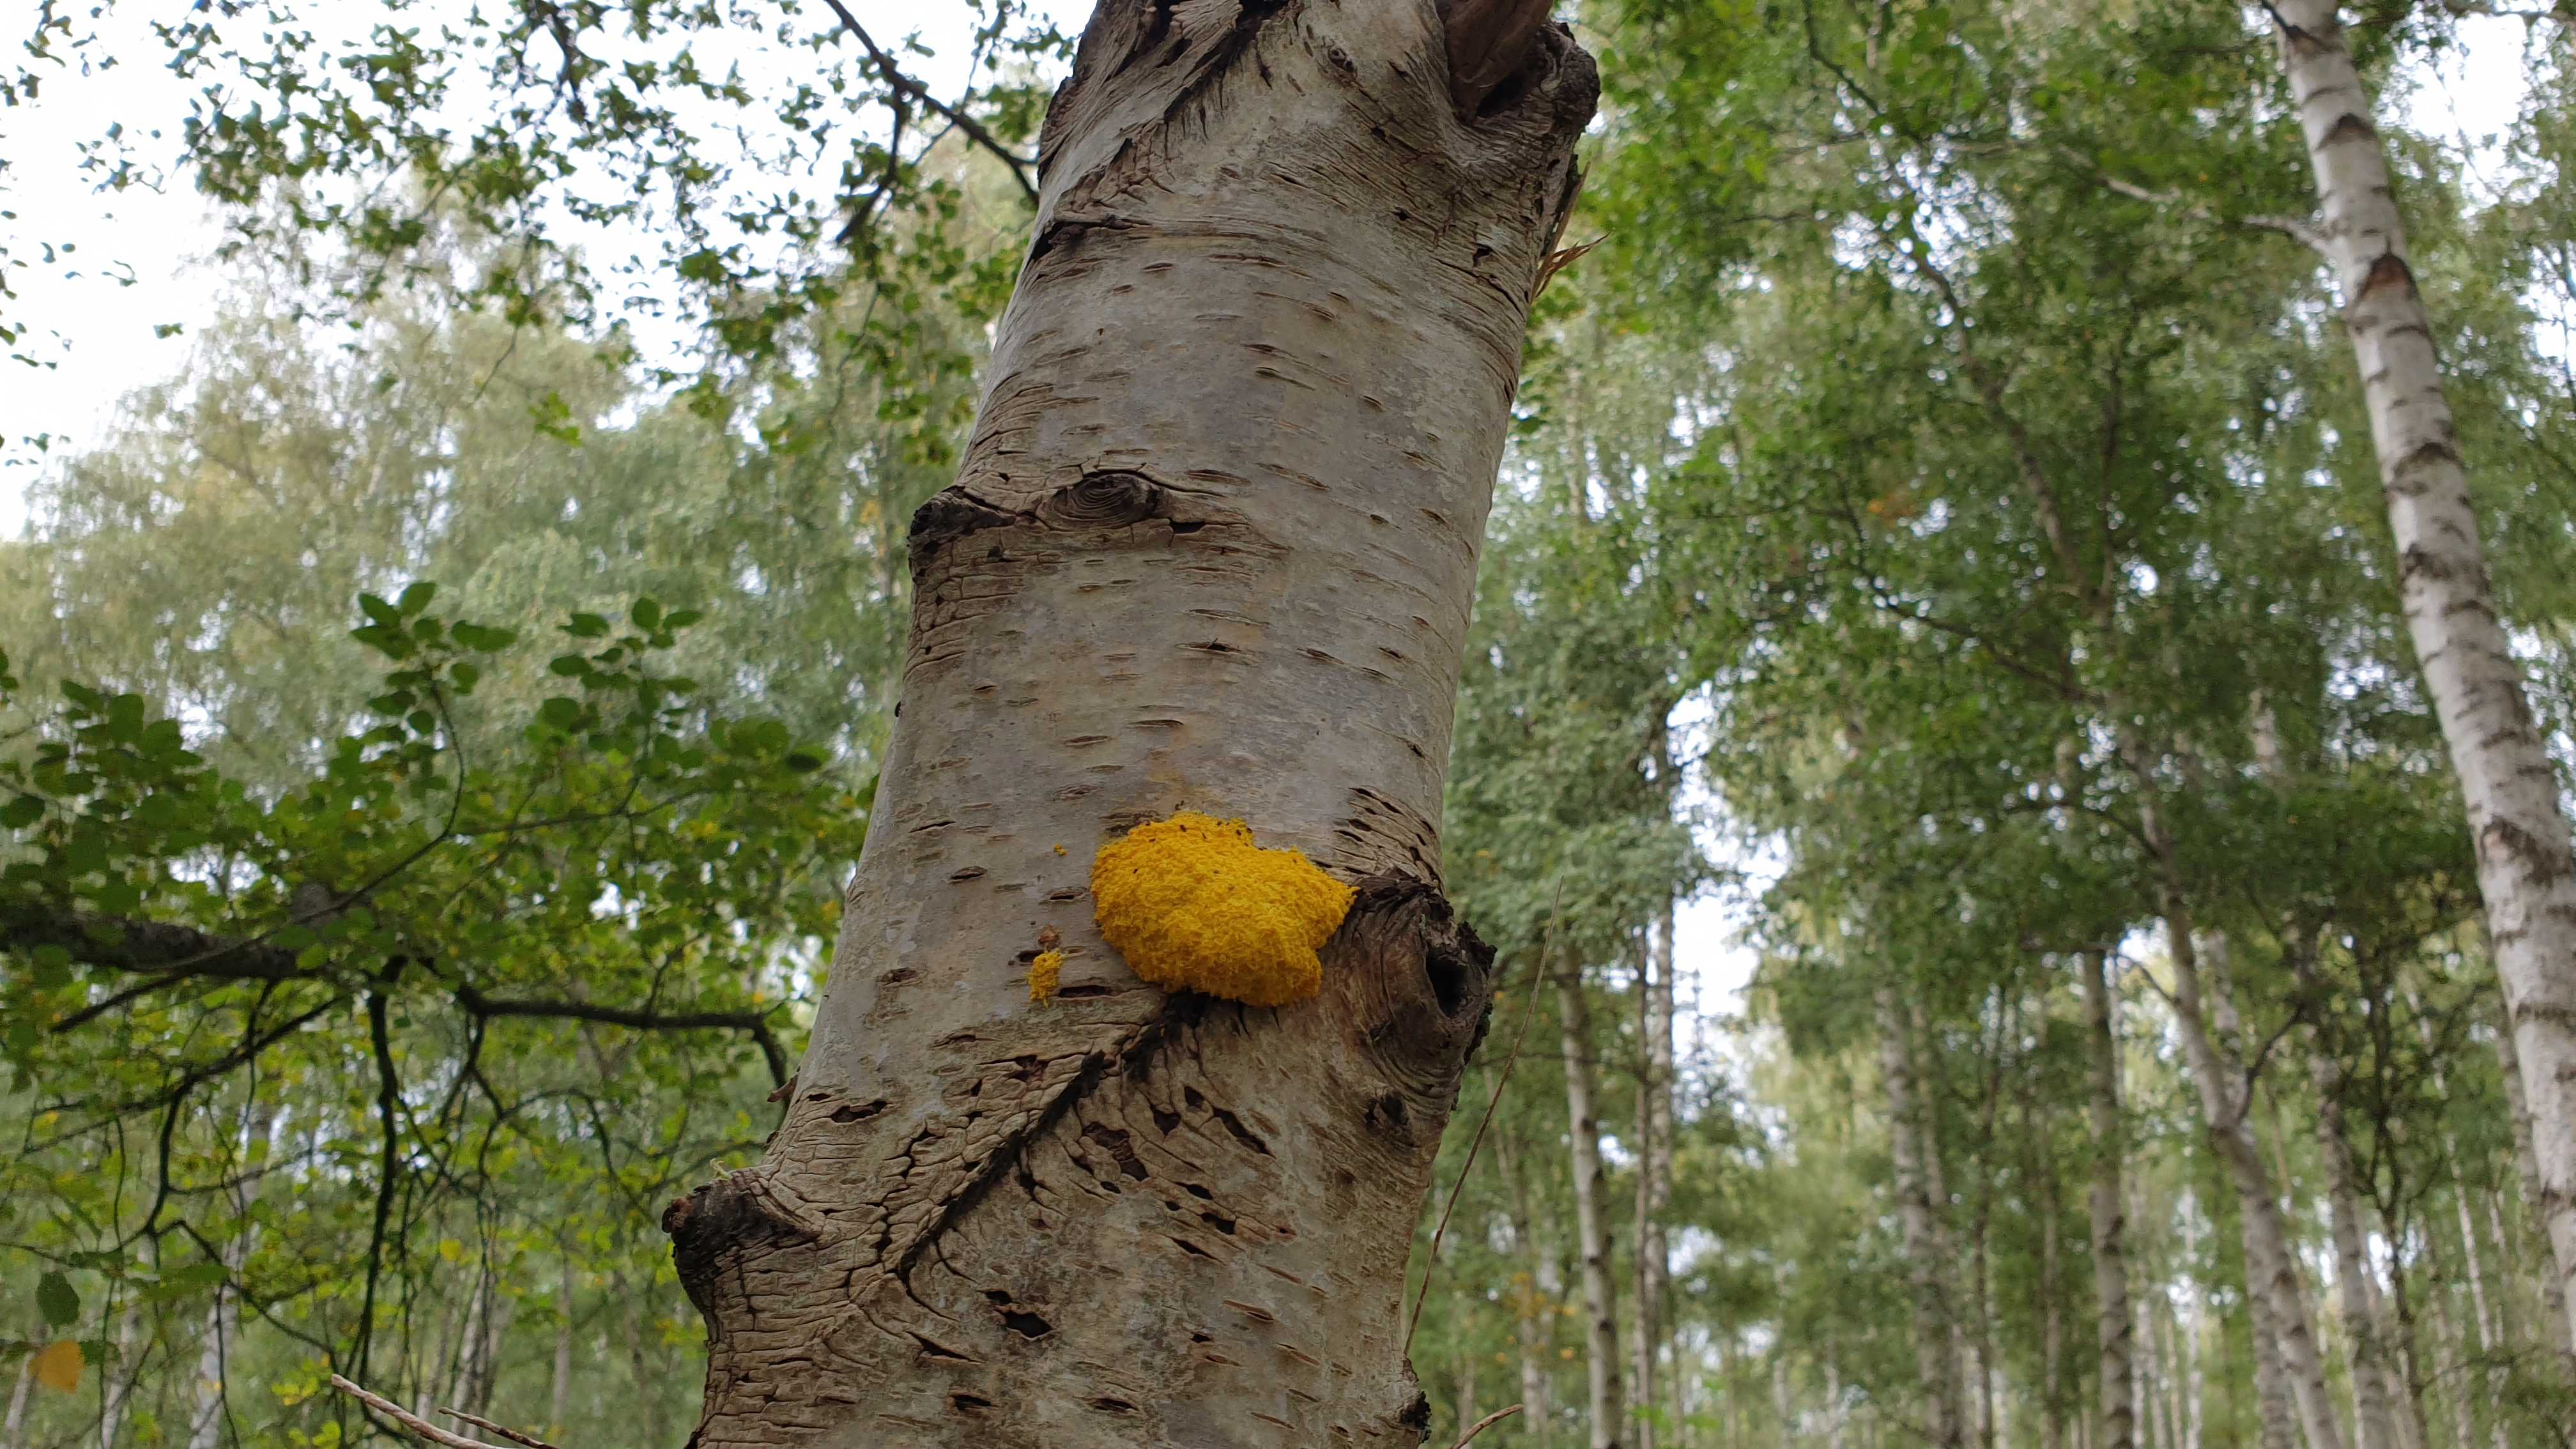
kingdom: Protozoa
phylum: Mycetozoa
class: Myxomycetes
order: Physarales
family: Physaraceae
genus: Fuligo
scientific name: Fuligo septica
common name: gul troldsmør
